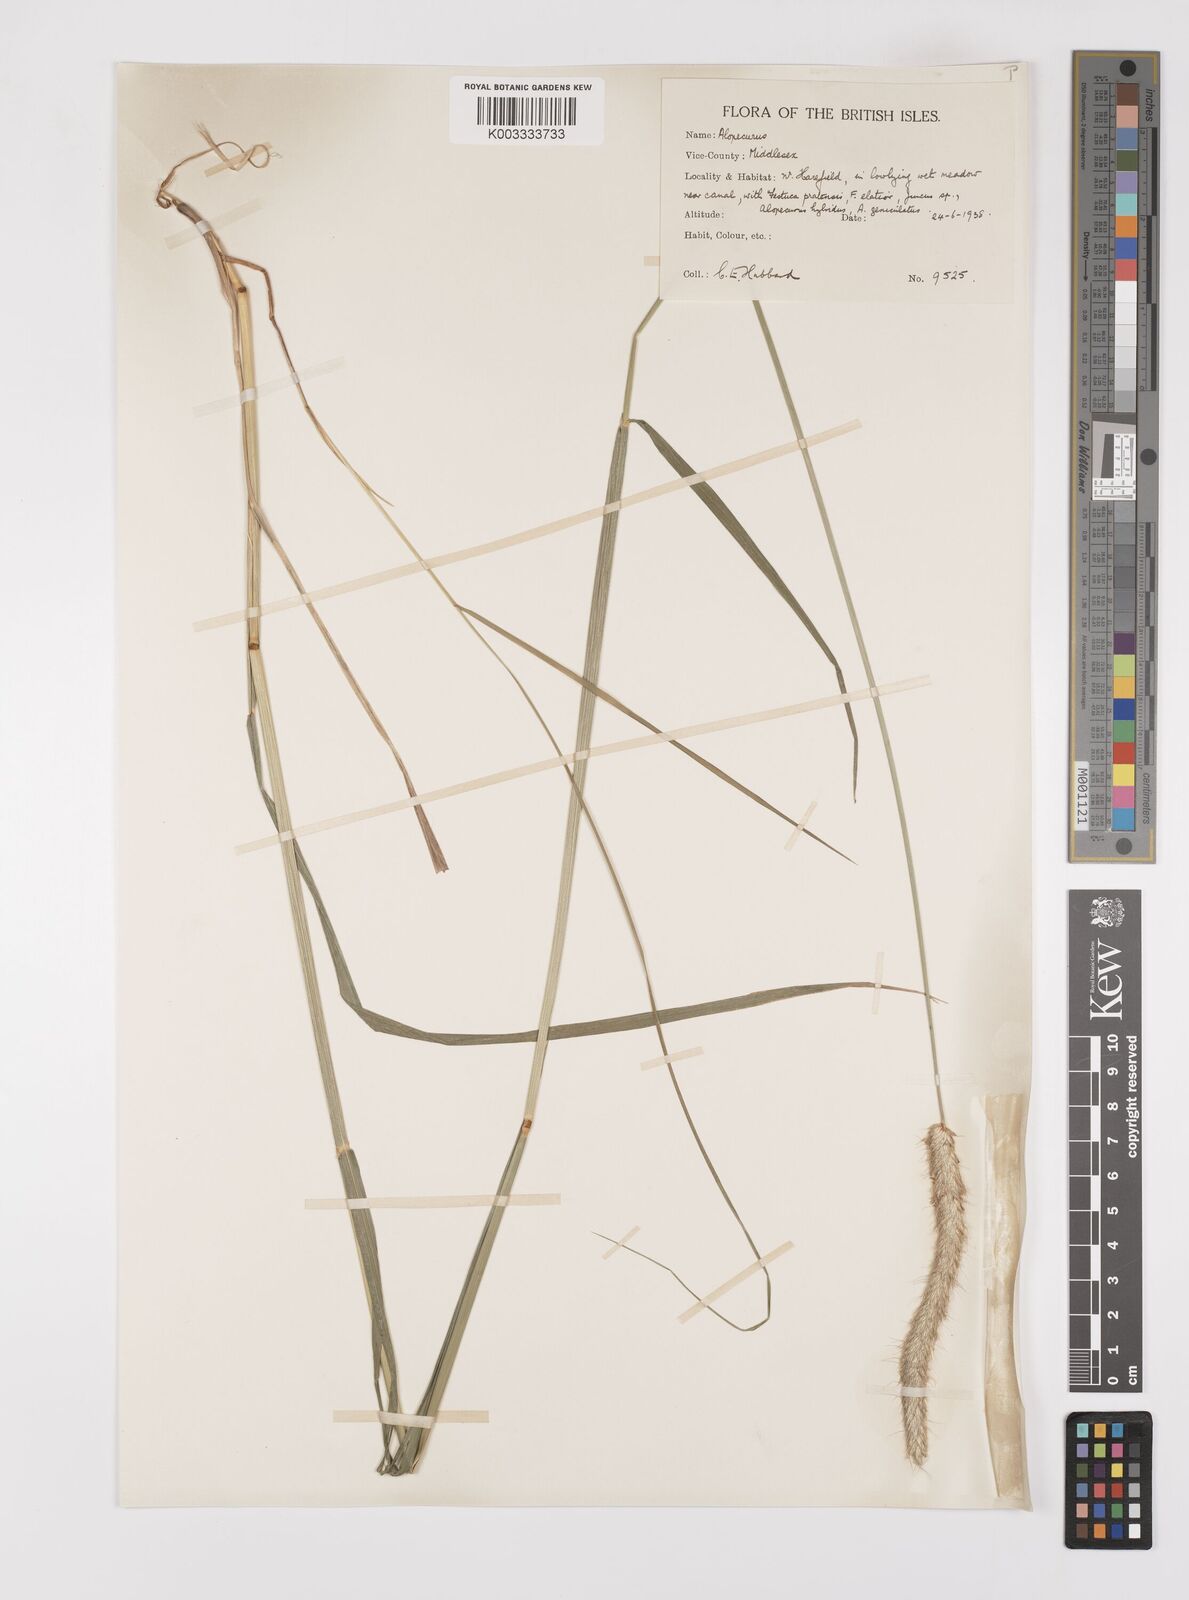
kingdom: Plantae
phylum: Tracheophyta
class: Liliopsida
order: Poales
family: Poaceae
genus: Alopecurus
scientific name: Alopecurus pratensis
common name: Meadow foxtail
